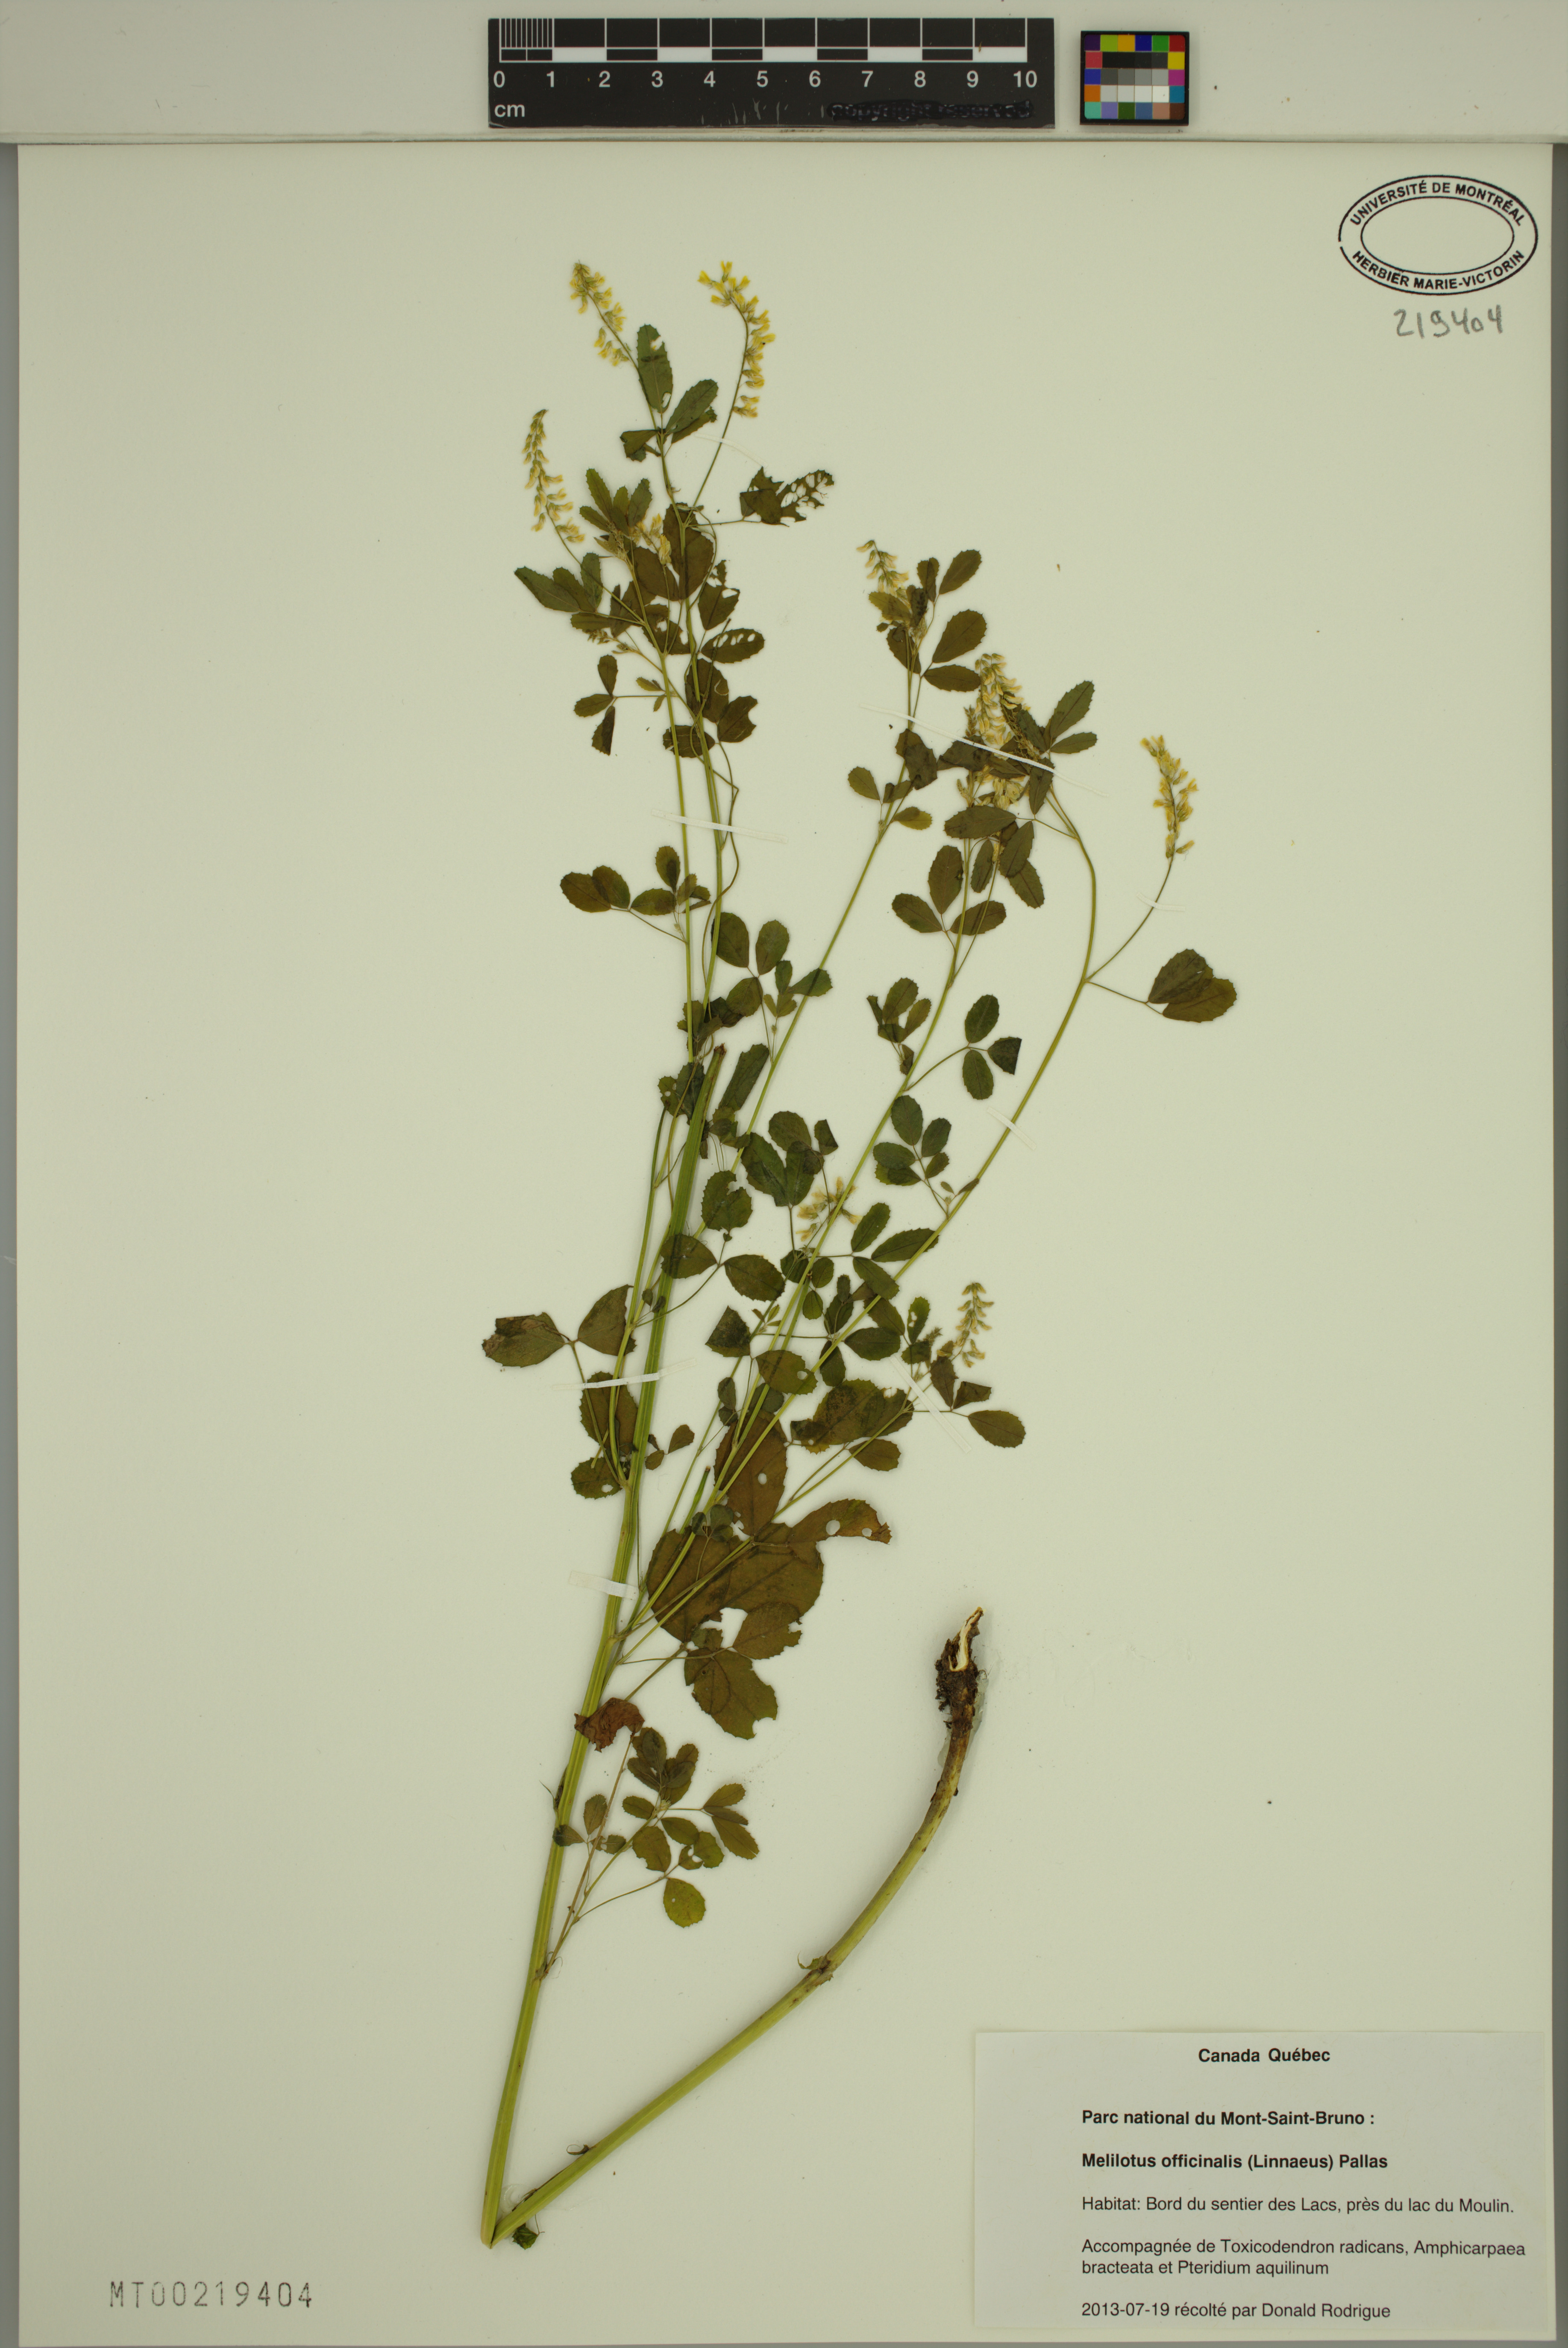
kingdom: Plantae
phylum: Tracheophyta
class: Magnoliopsida
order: Fabales
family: Fabaceae
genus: Melilotus
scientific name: Melilotus officinalis
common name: Sweetclover
